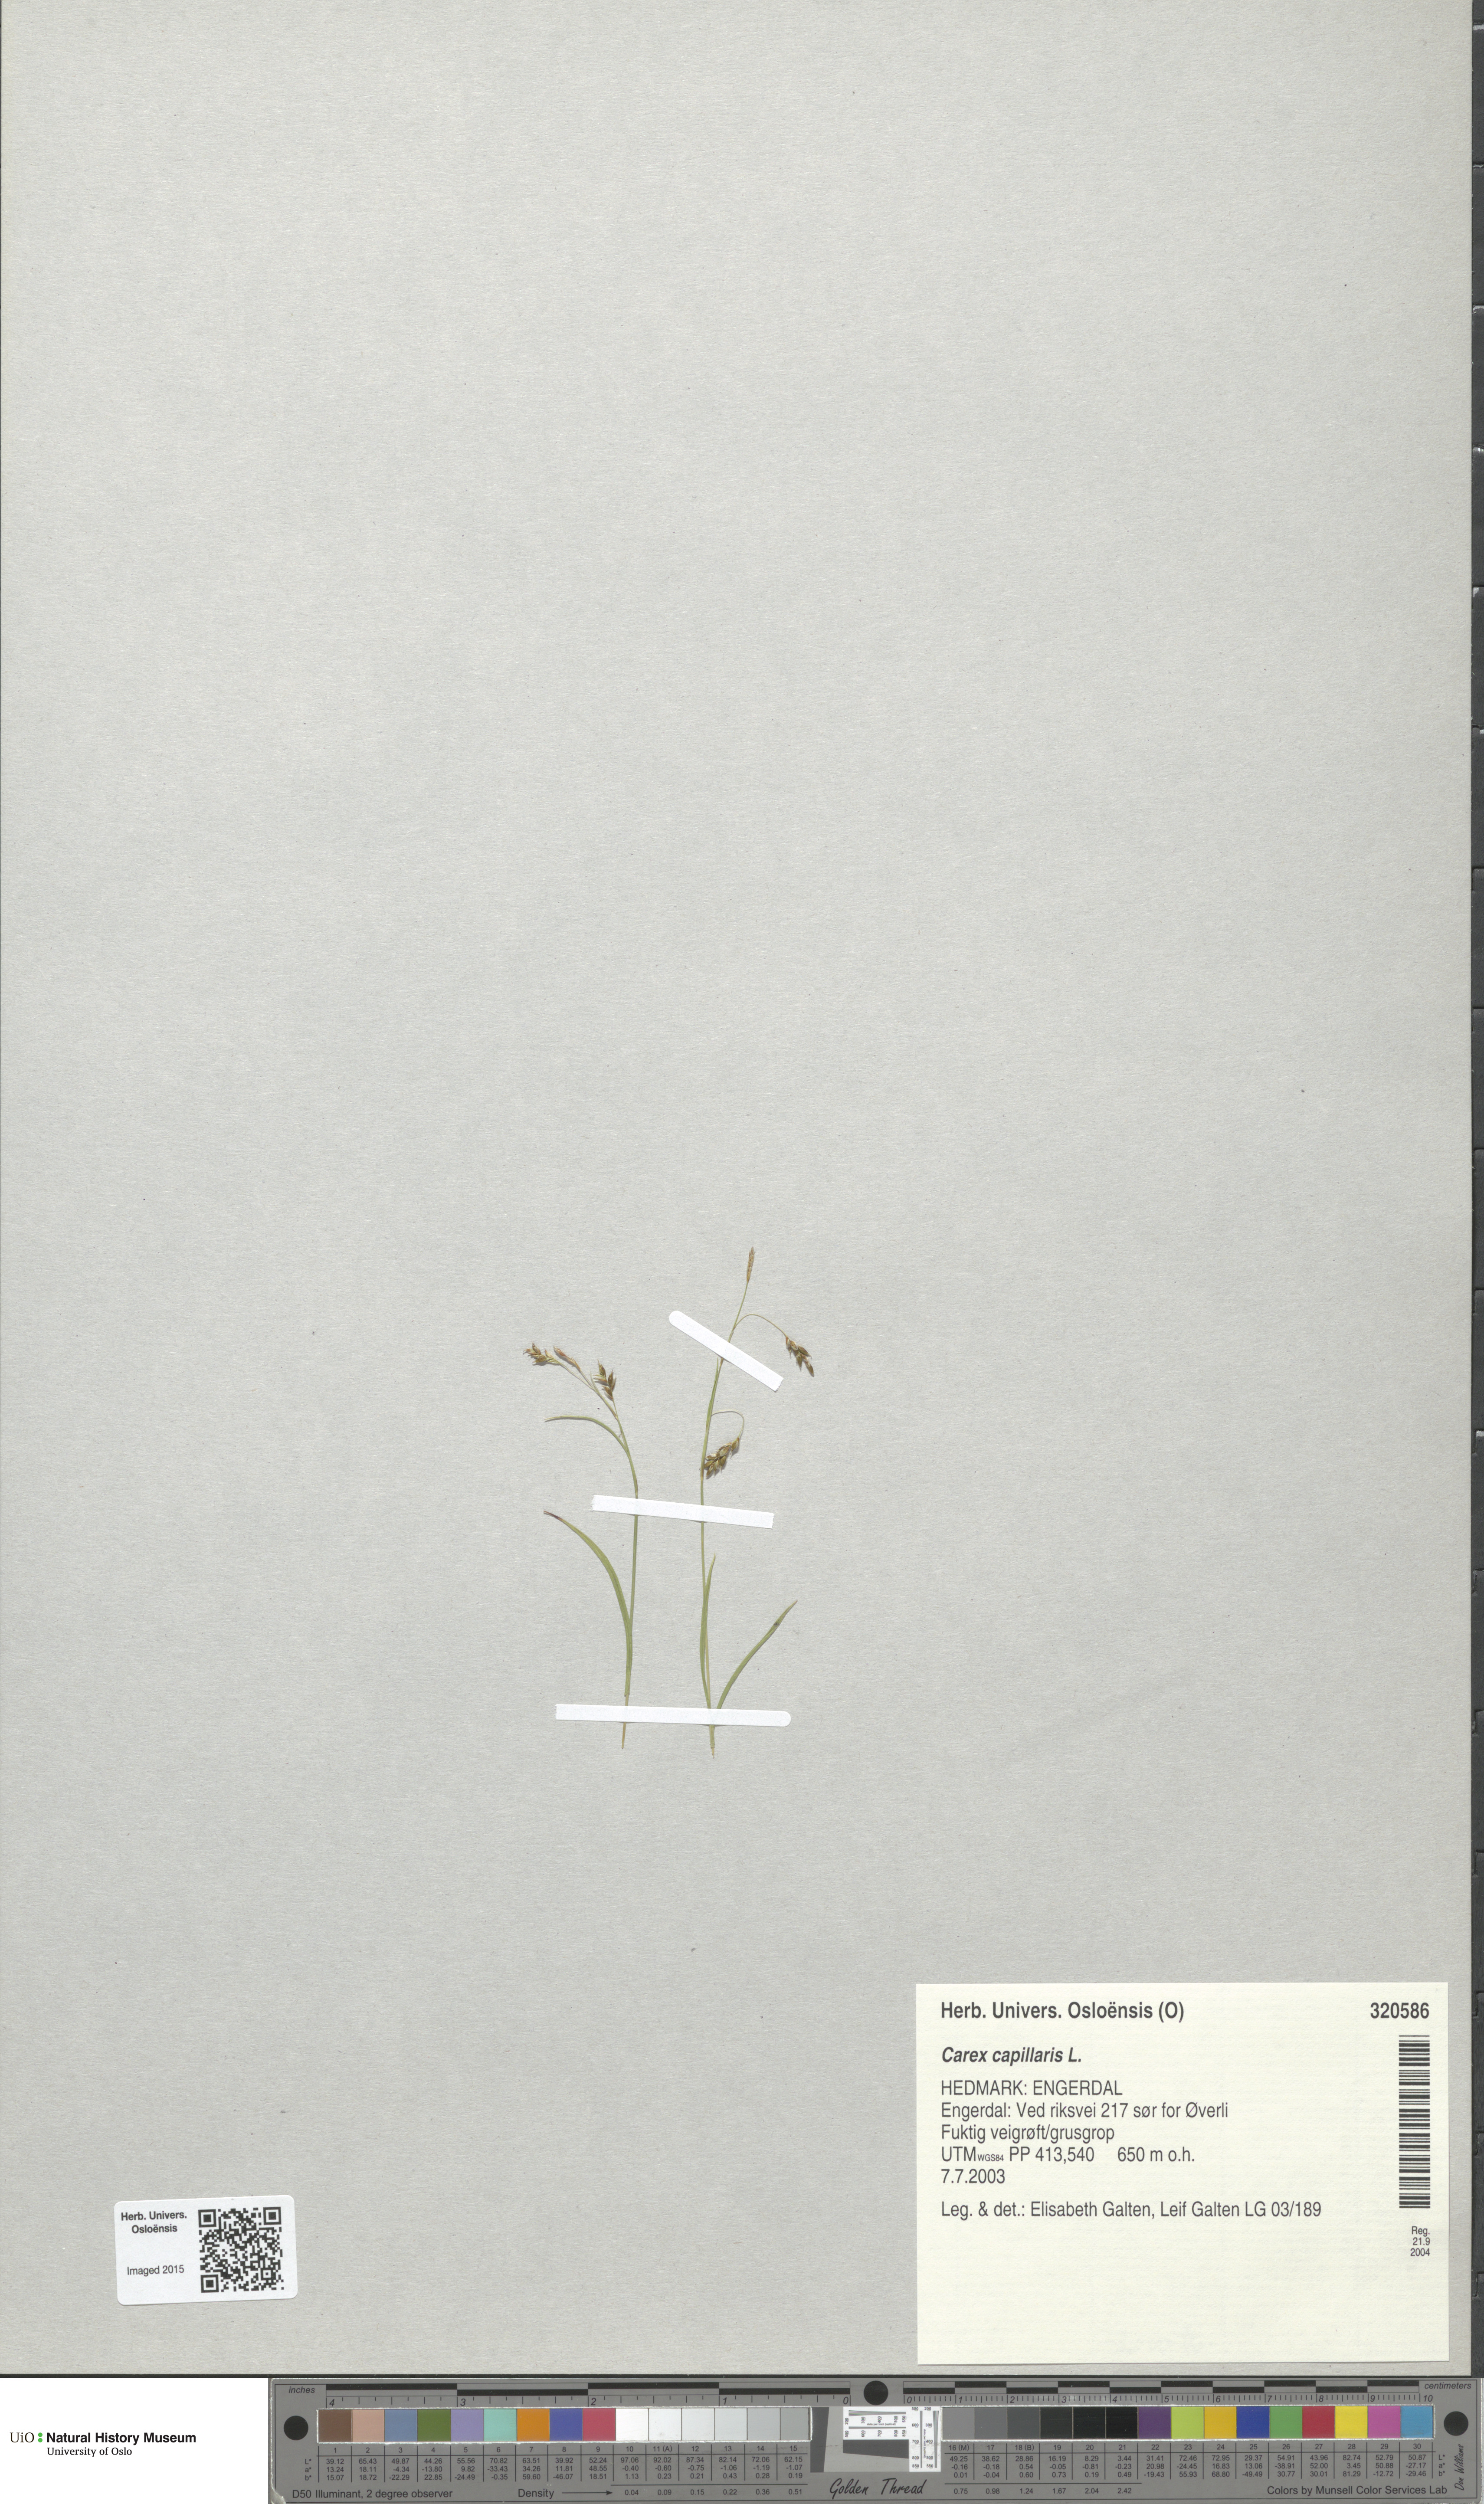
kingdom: Plantae
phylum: Tracheophyta
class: Liliopsida
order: Poales
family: Cyperaceae
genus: Carex
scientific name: Carex capillaris
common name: Hair sedge
